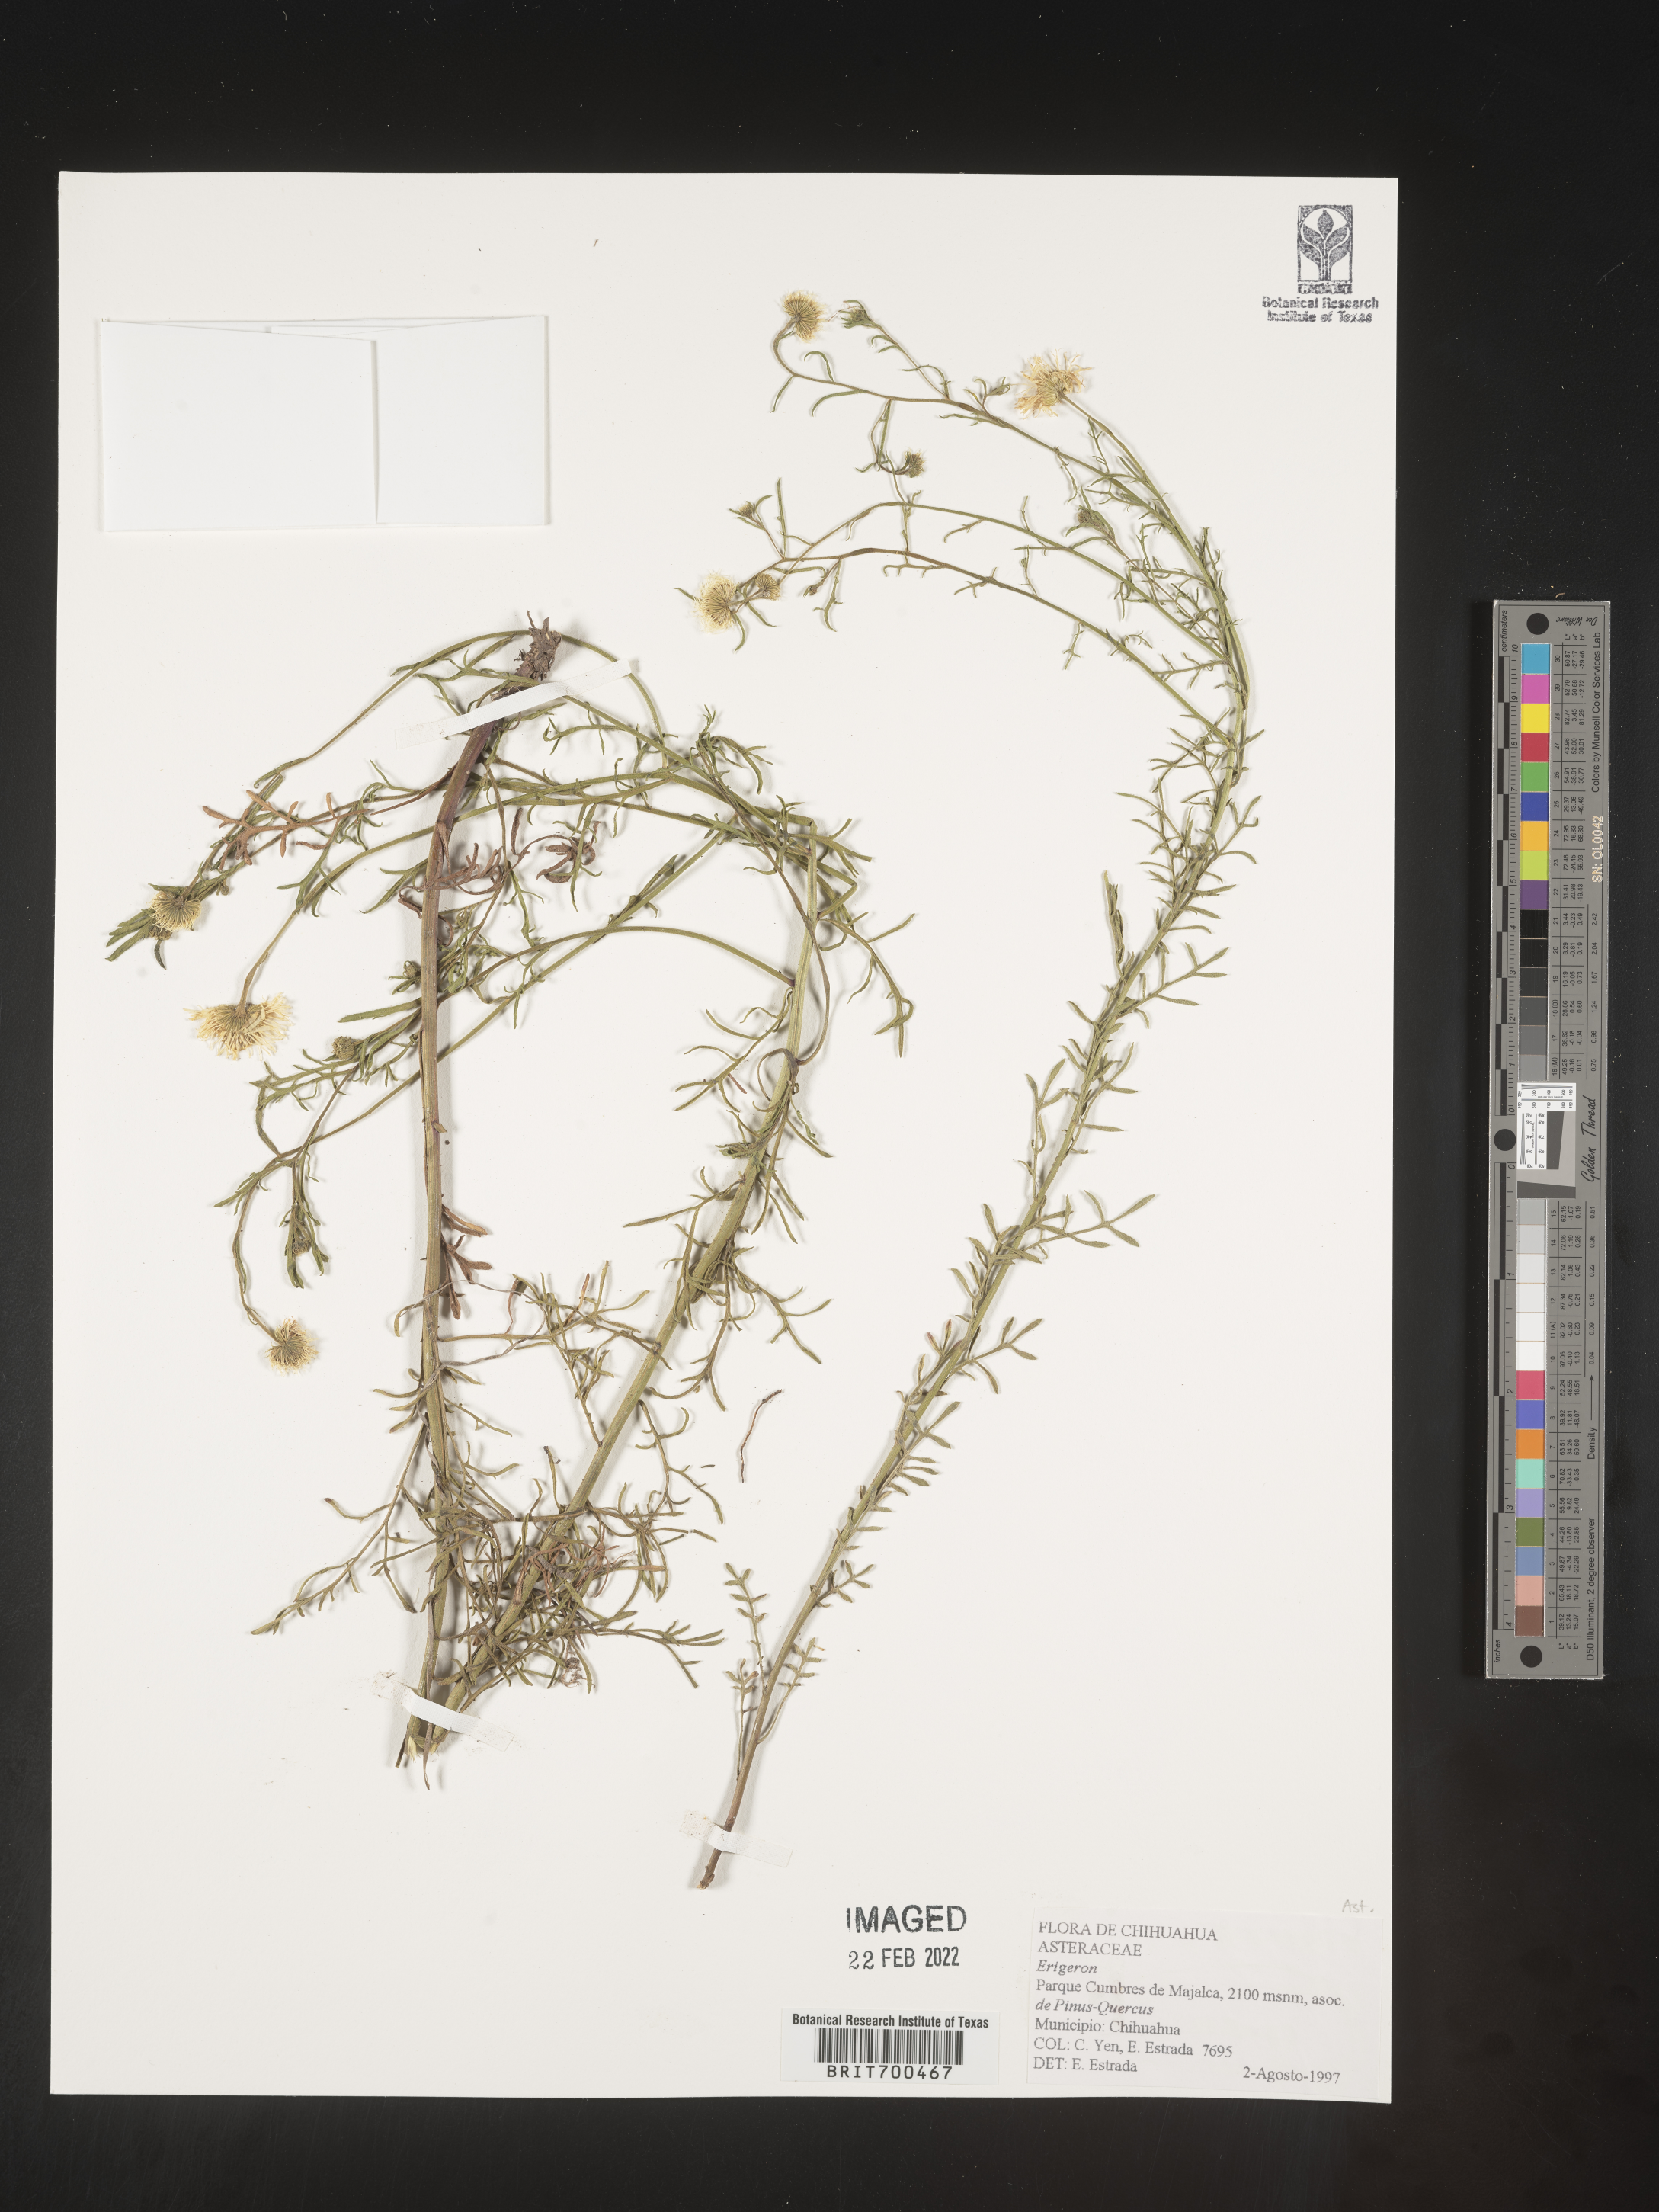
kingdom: Plantae
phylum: Tracheophyta
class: Magnoliopsida
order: Asterales
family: Asteraceae
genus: Erigeron
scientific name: Erigeron
